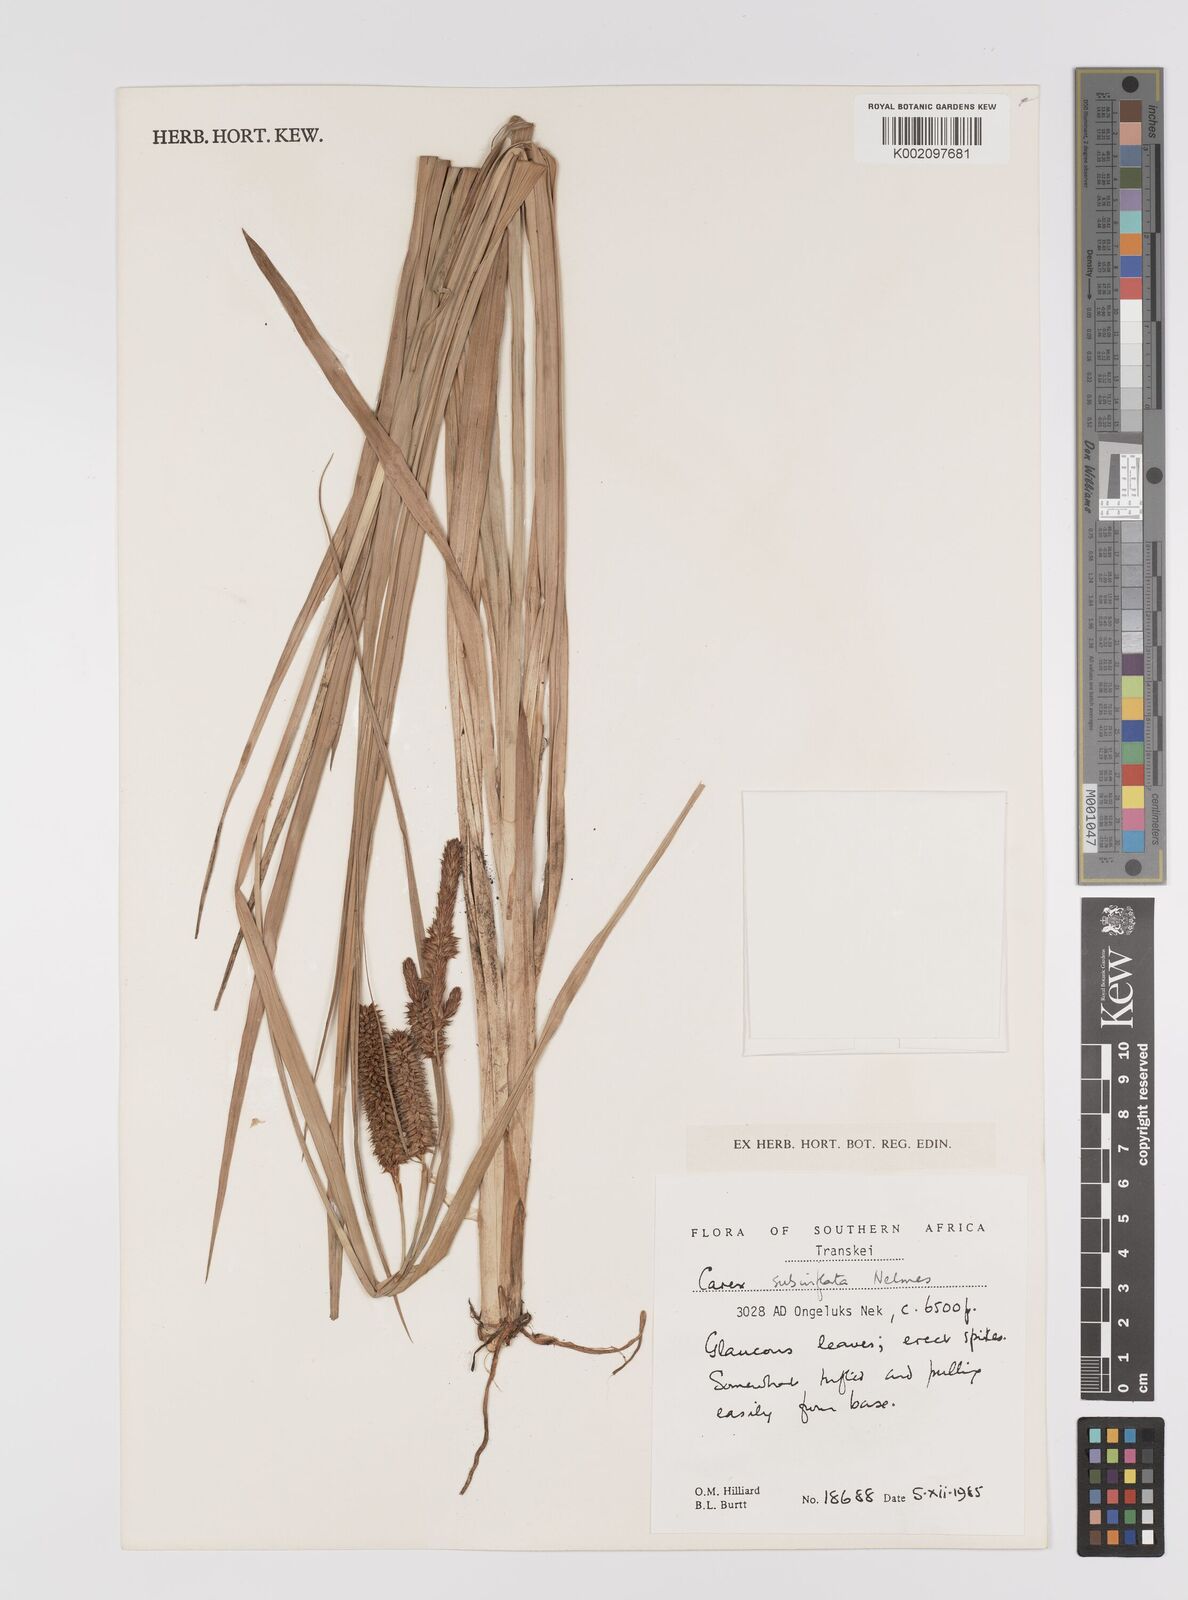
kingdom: Plantae
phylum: Tracheophyta
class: Liliopsida
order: Poales
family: Cyperaceae
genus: Carex
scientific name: Carex subinflata
